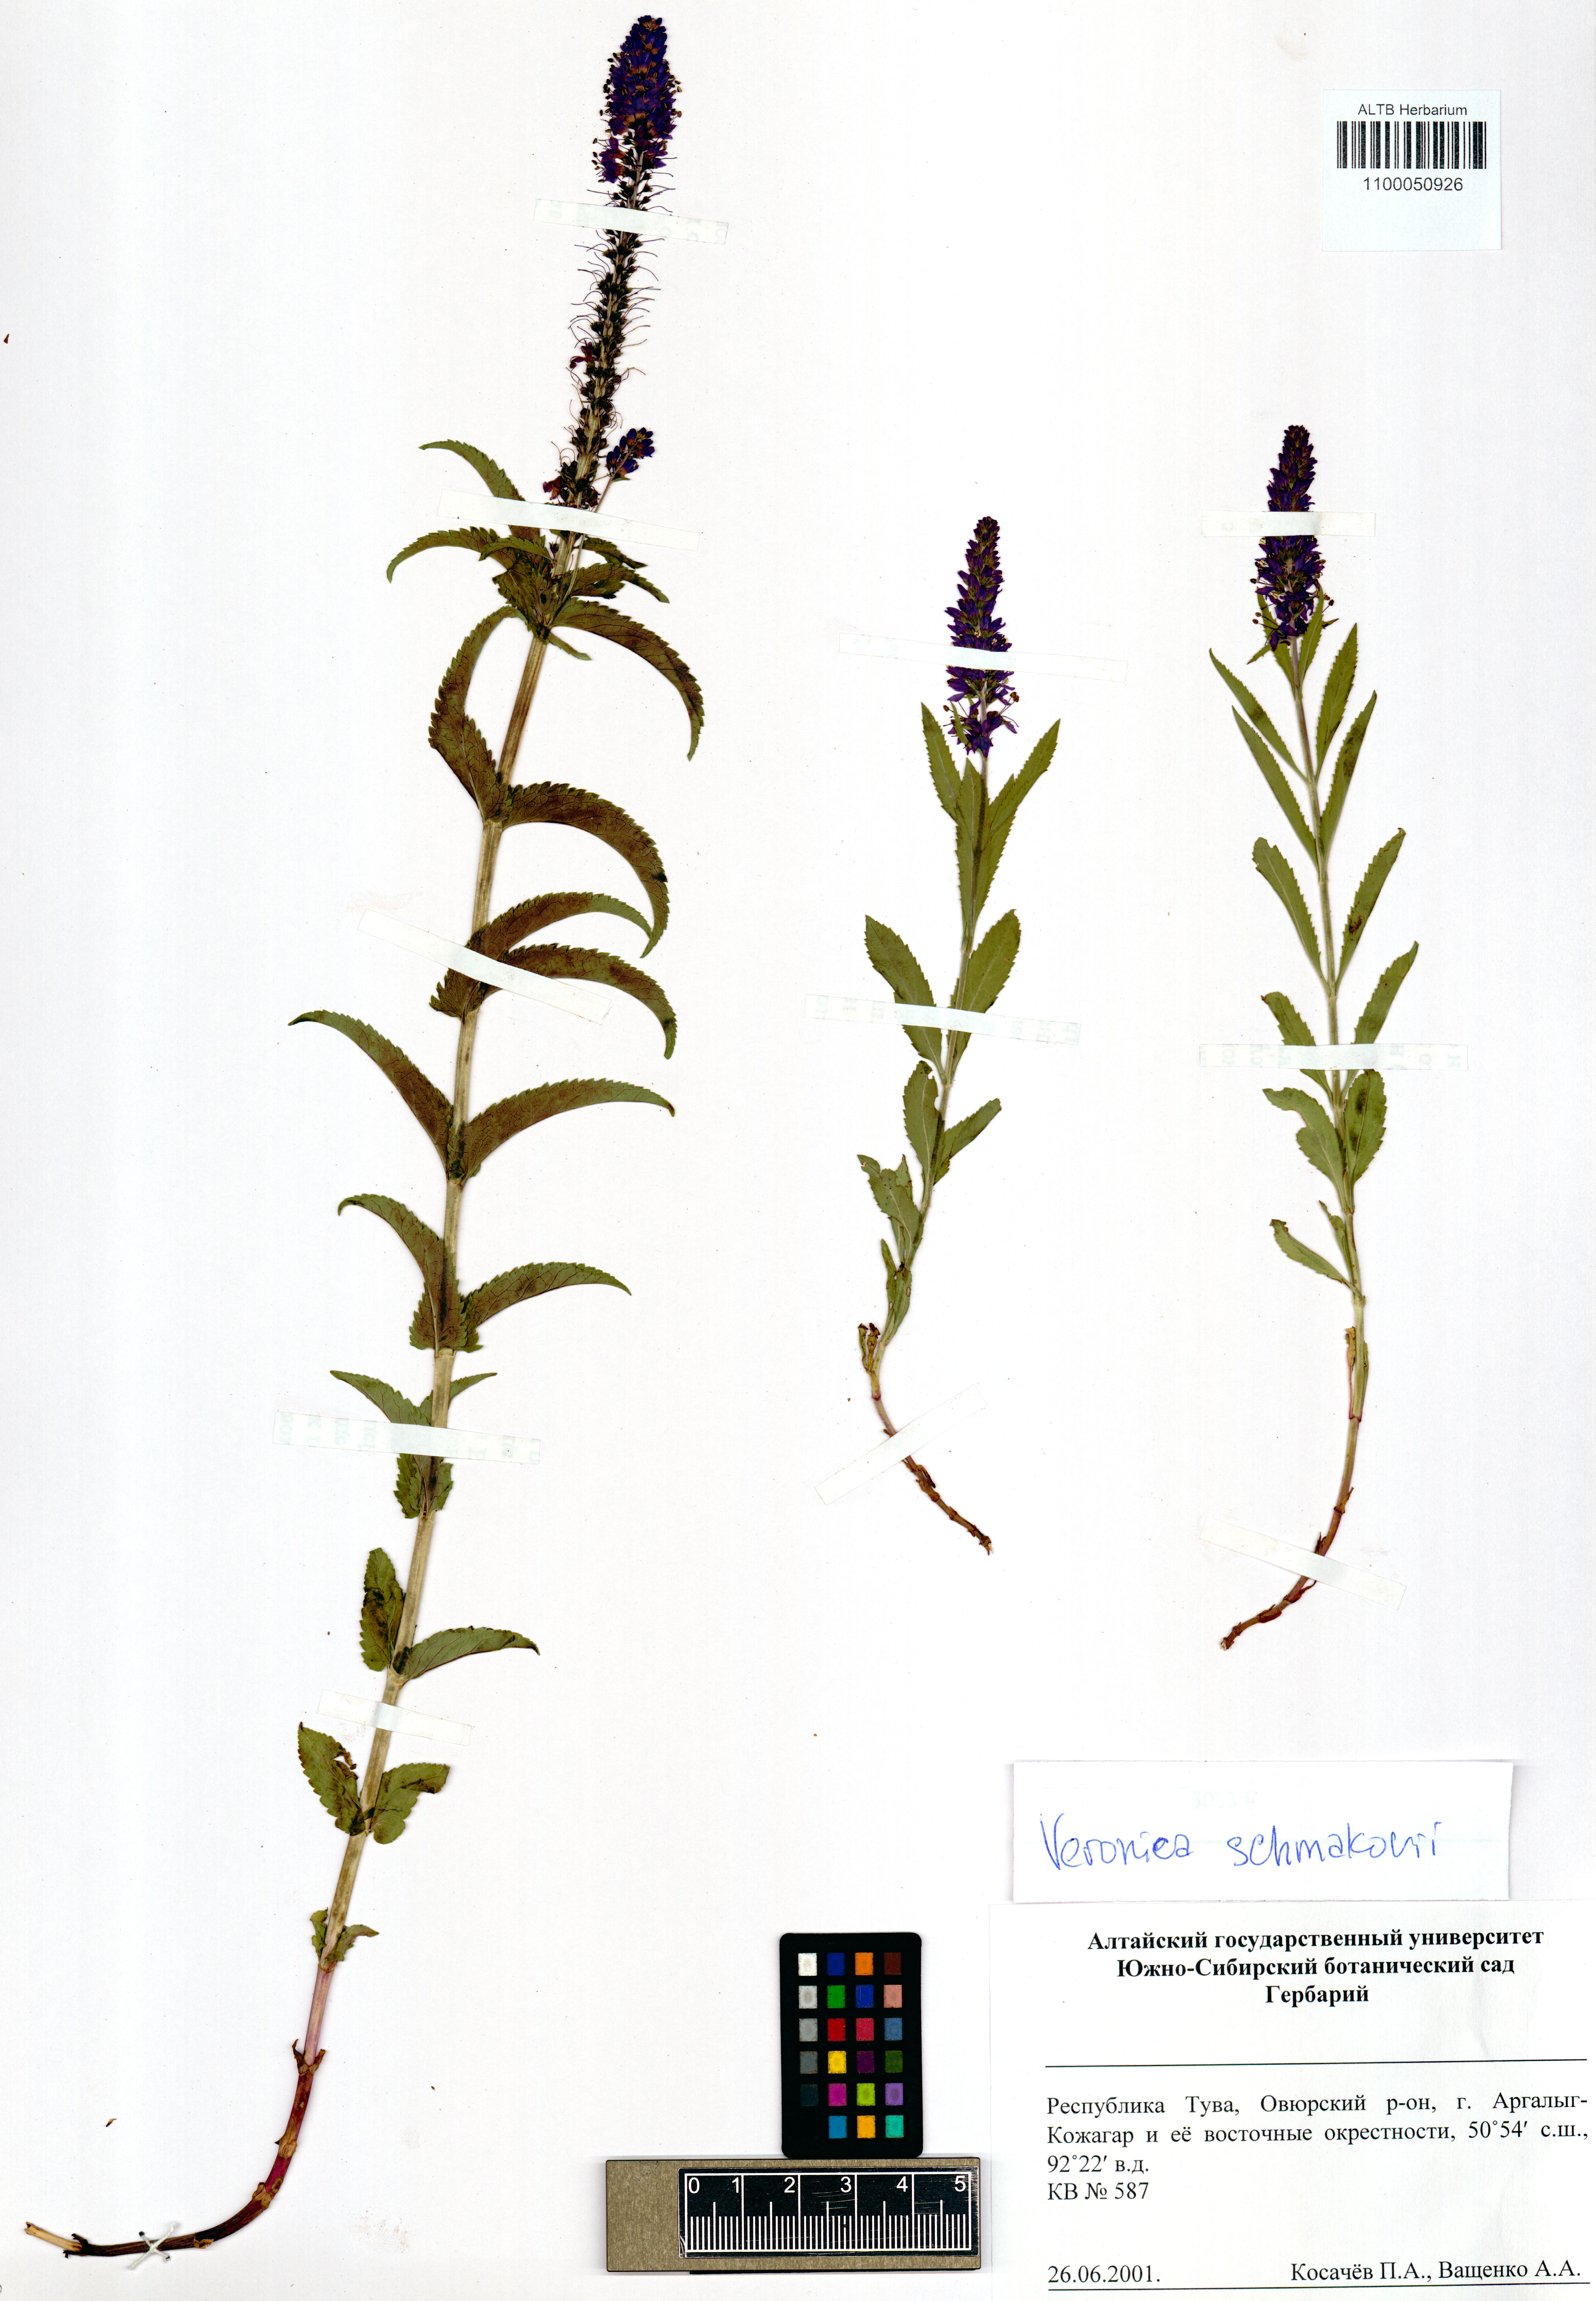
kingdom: Plantae
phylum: Tracheophyta
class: Magnoliopsida
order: Lamiales
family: Plantaginaceae
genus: Veronica
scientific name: Veronica schmakovii
